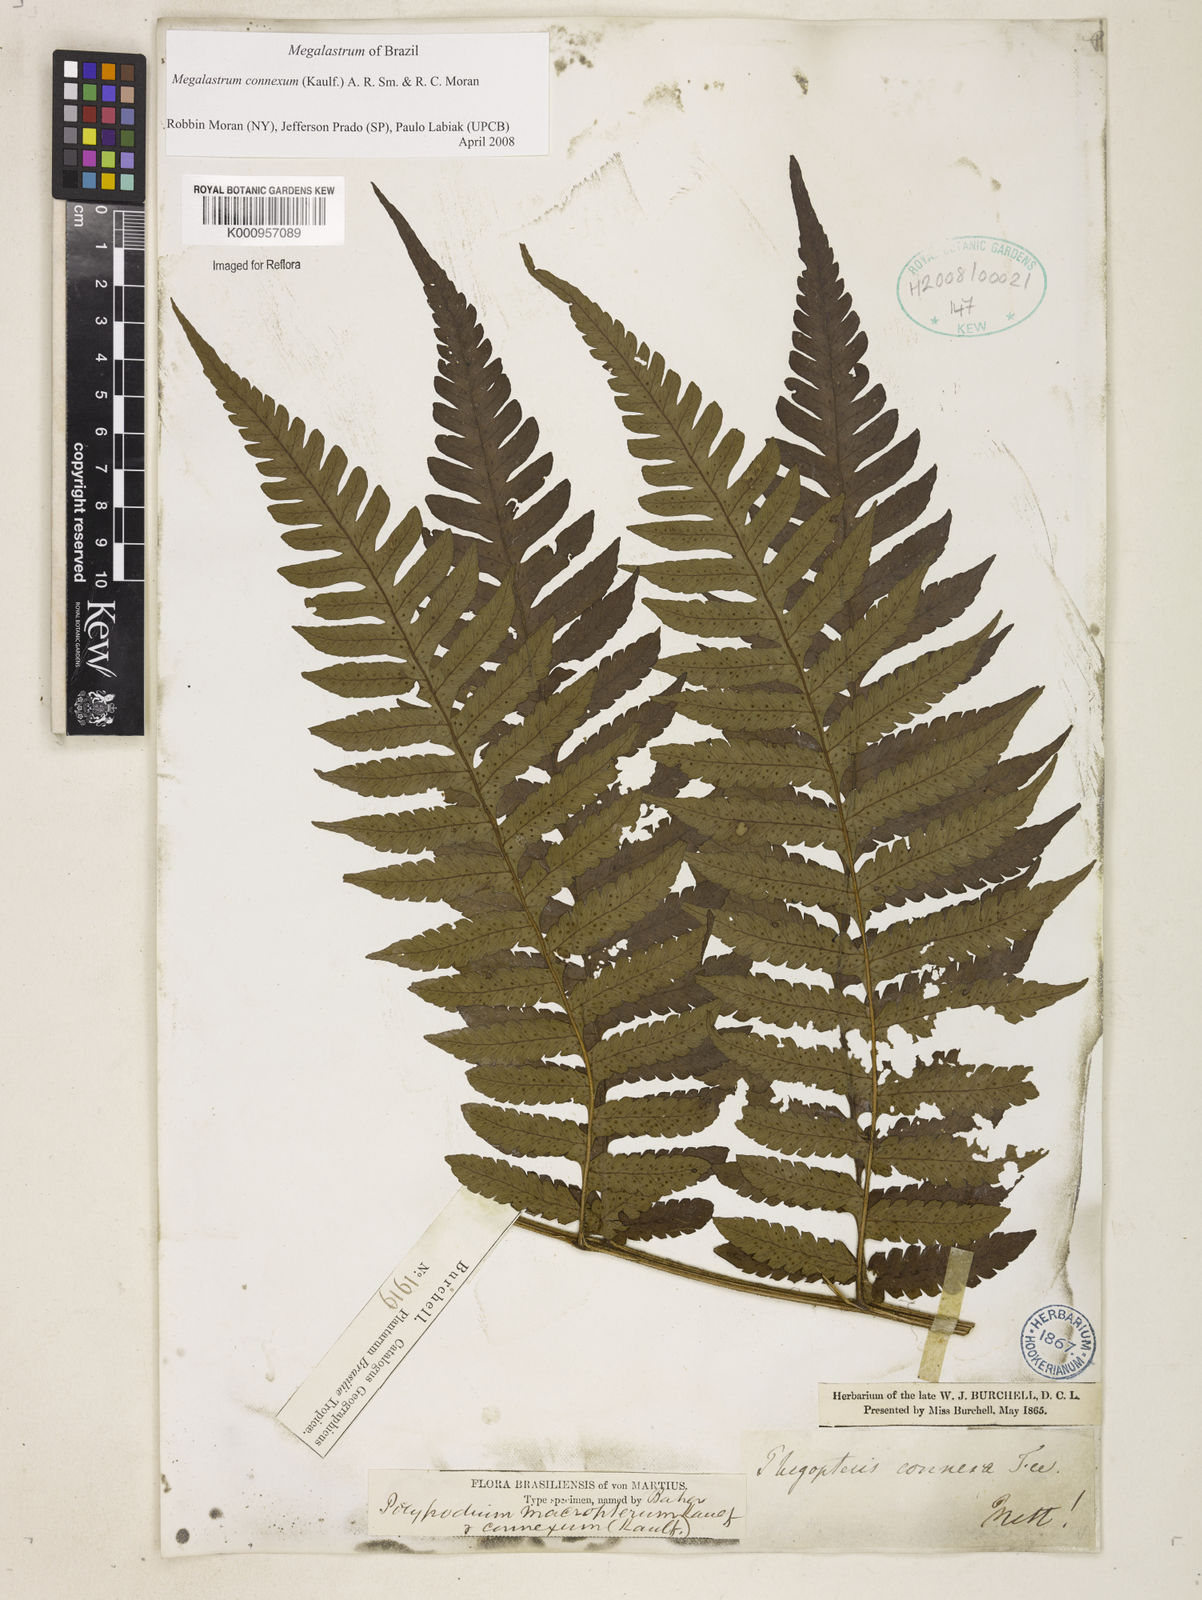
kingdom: Plantae
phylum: Tracheophyta
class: Polypodiopsida
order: Polypodiales
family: Dryopteridaceae
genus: Megalastrum
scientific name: Megalastrum connexum
